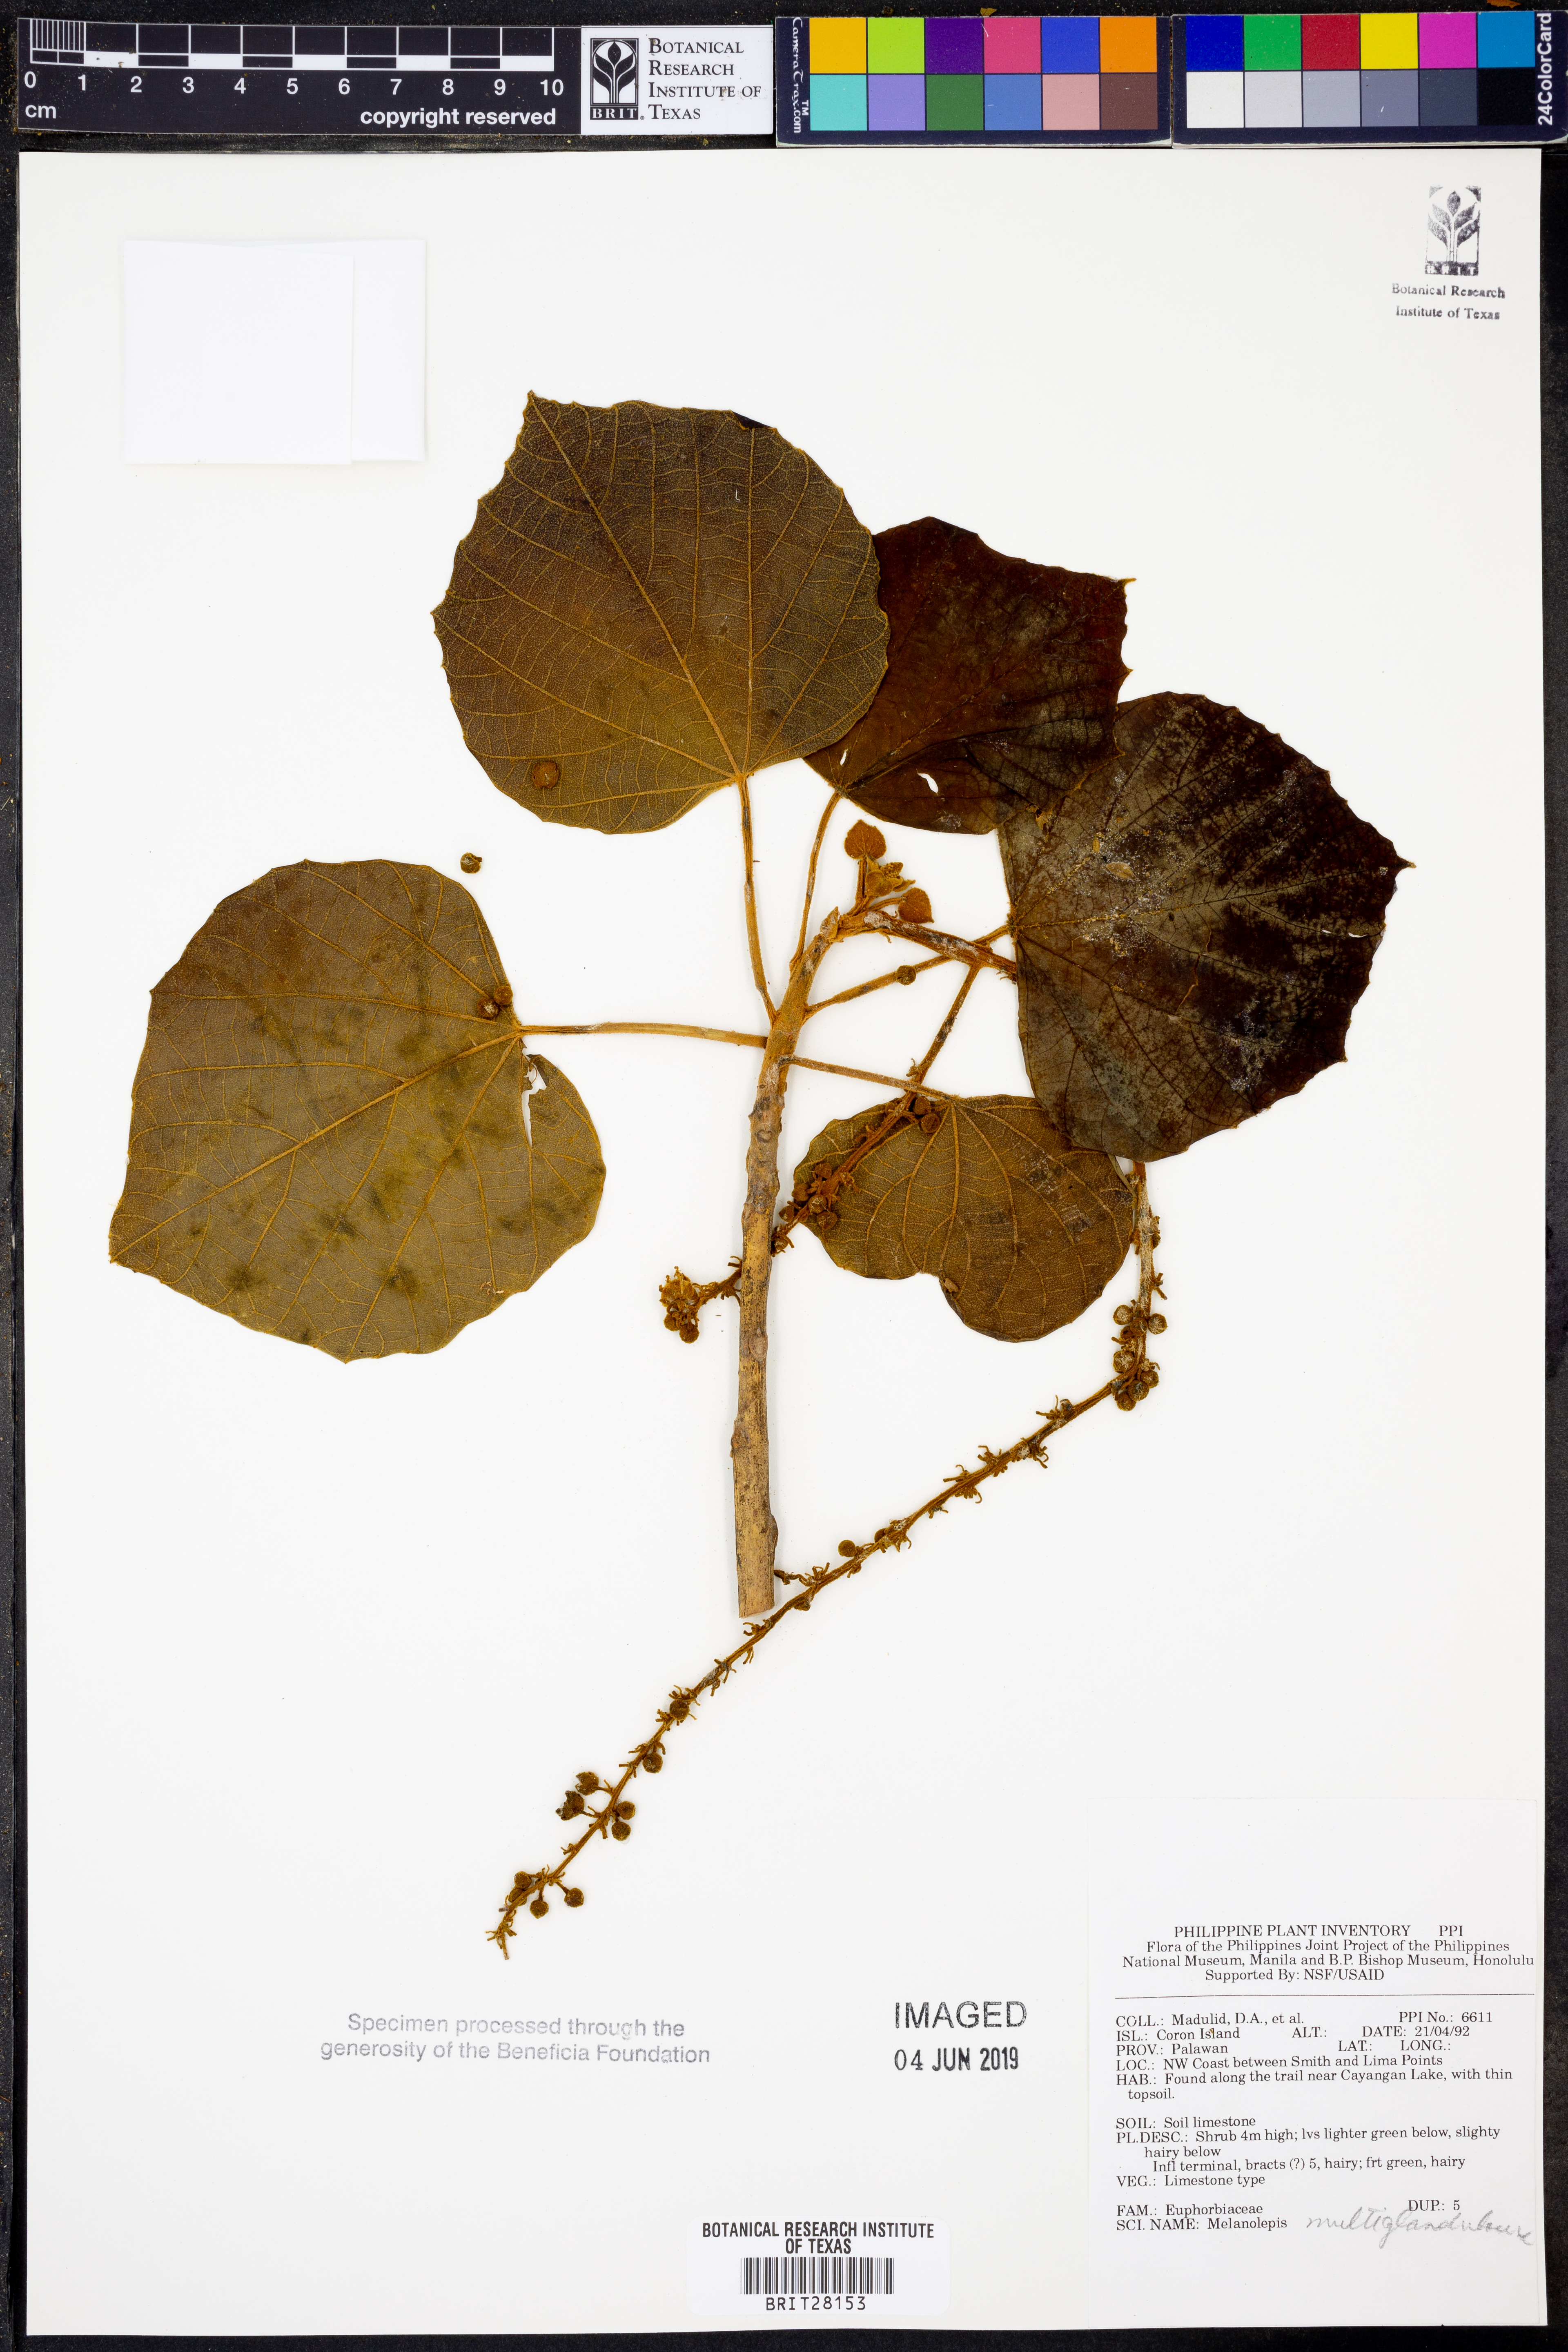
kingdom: Plantae
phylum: Tracheophyta
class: Magnoliopsida
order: Malpighiales
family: Euphorbiaceae
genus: Melanolepis
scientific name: Melanolepis
